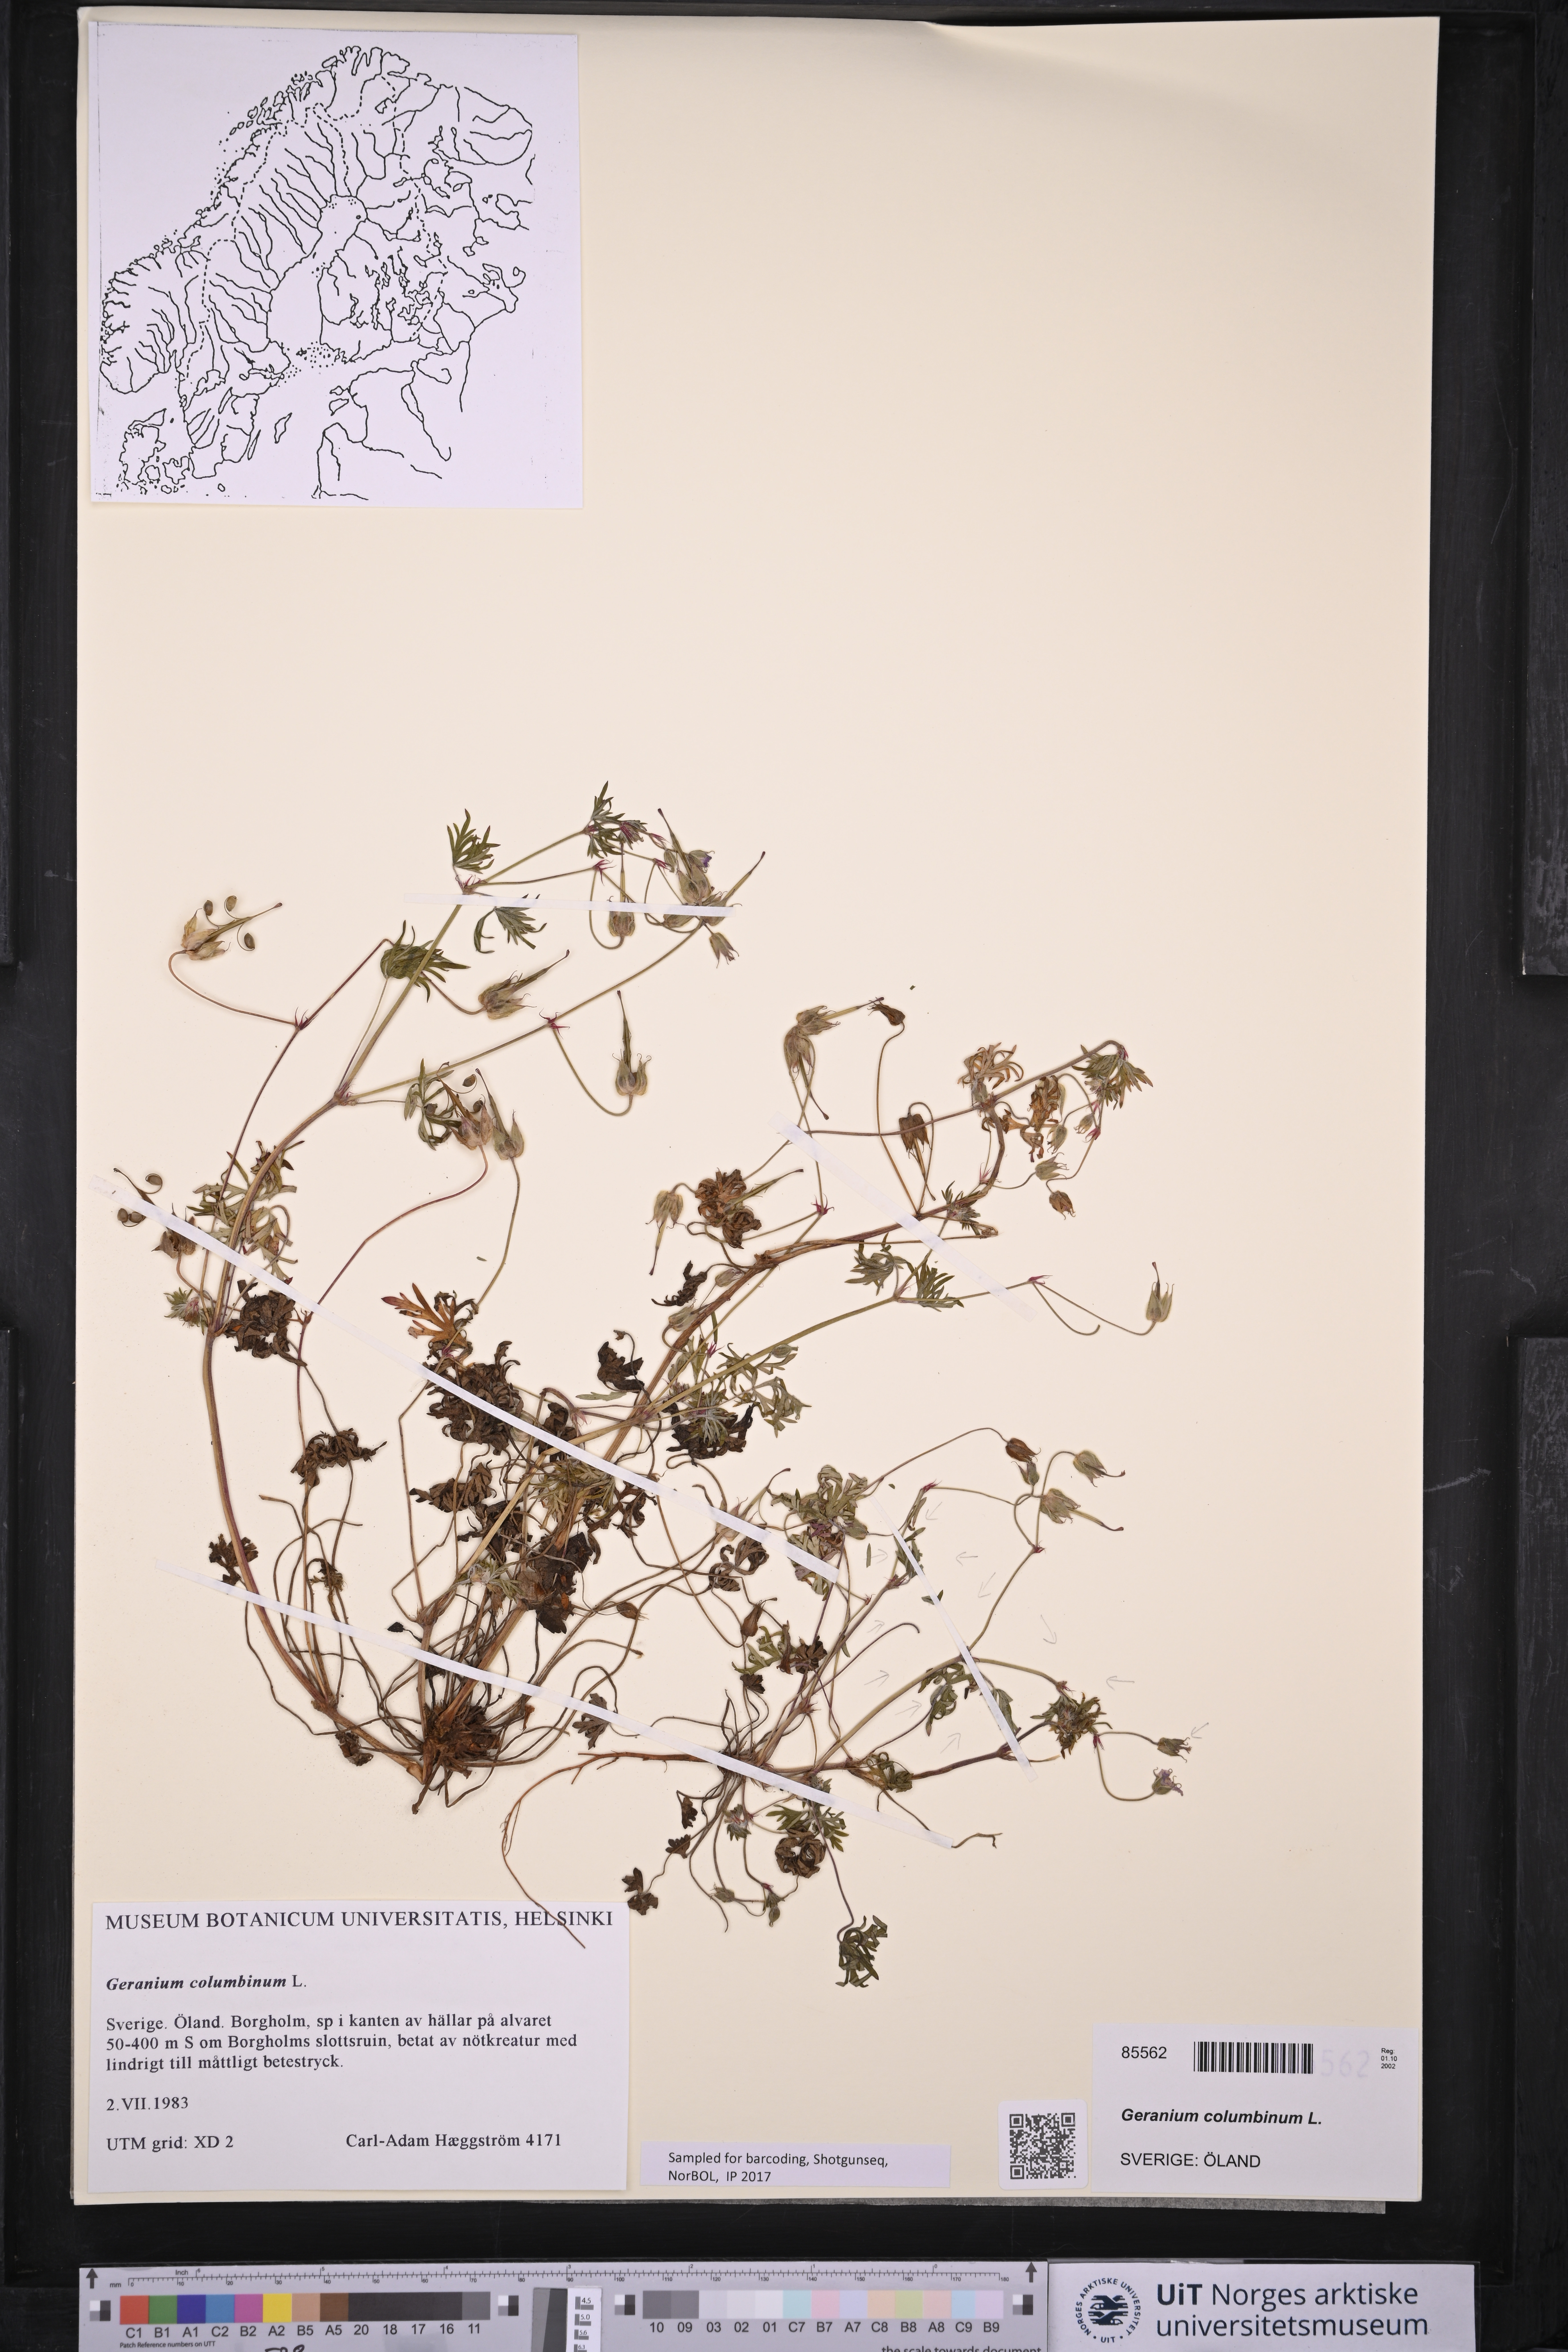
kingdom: Plantae
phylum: Tracheophyta
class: Magnoliopsida
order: Geraniales
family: Geraniaceae
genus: Geranium
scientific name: Geranium columbinum
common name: Long-stalked crane's-bill
